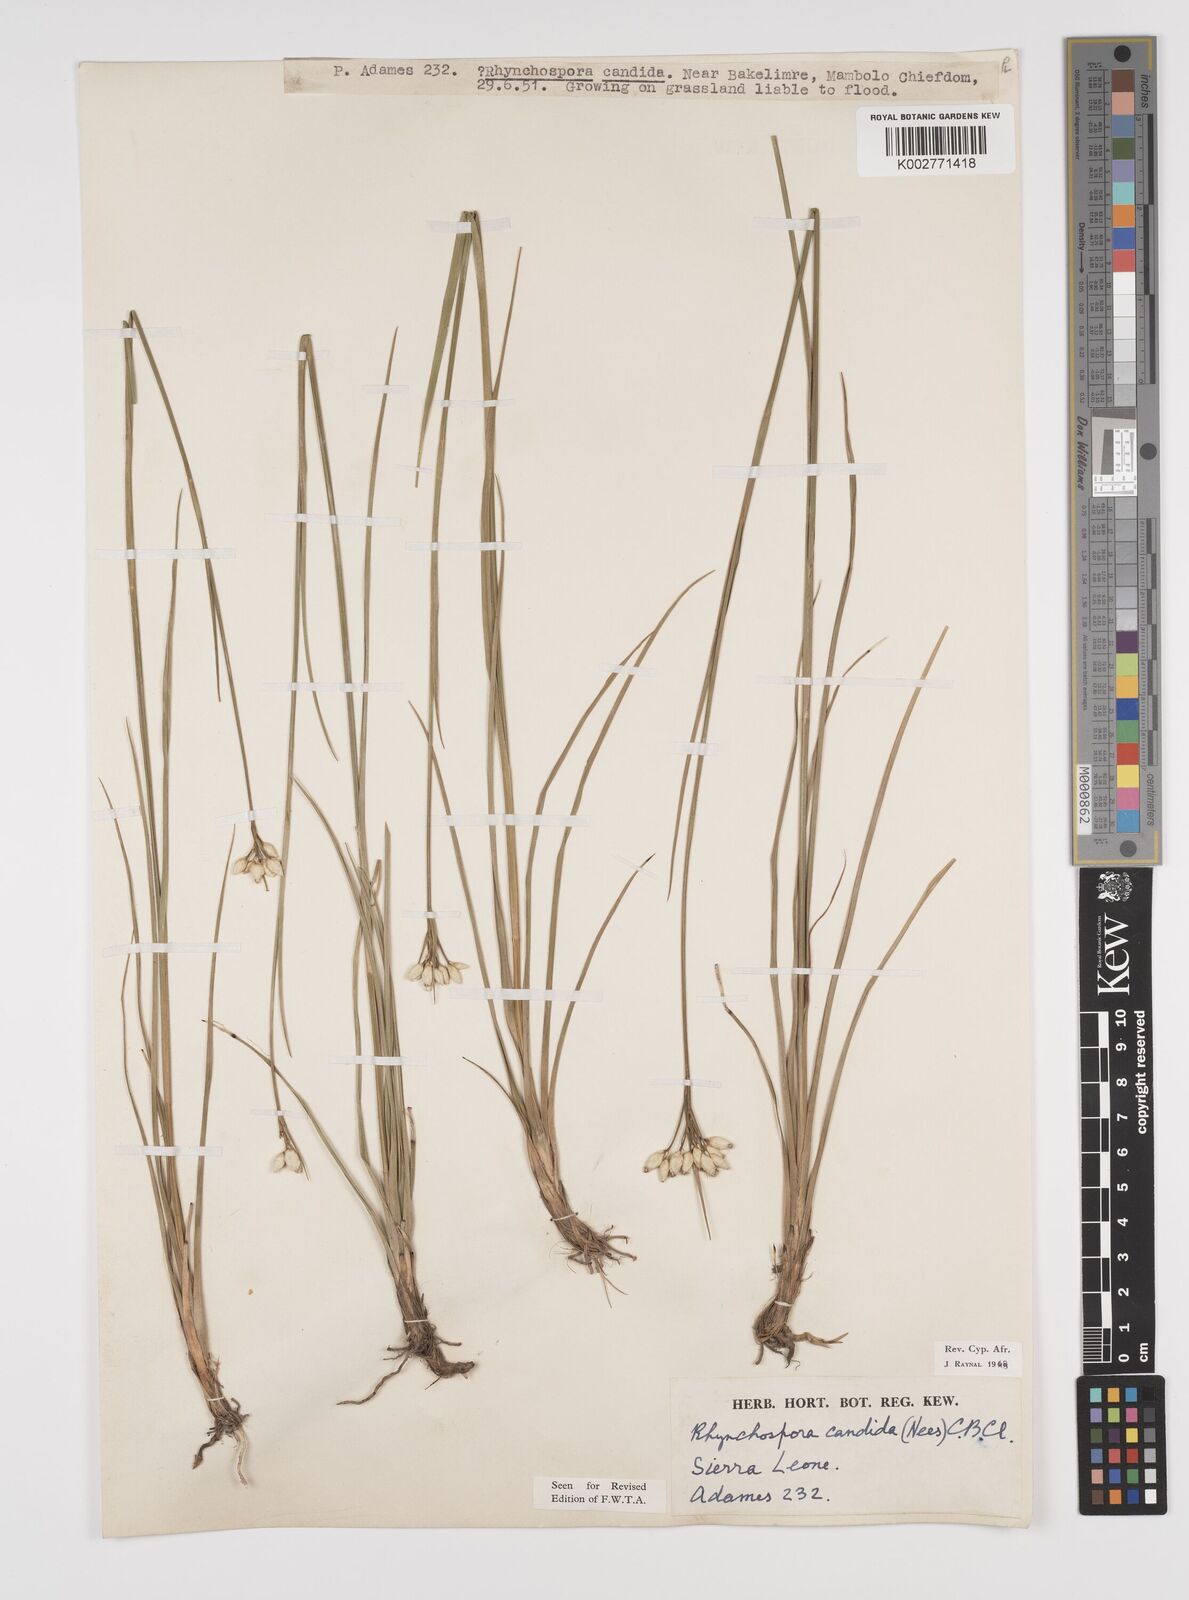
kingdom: Plantae
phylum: Tracheophyta
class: Liliopsida
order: Poales
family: Cyperaceae
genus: Rhynchospora
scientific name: Rhynchospora candida
